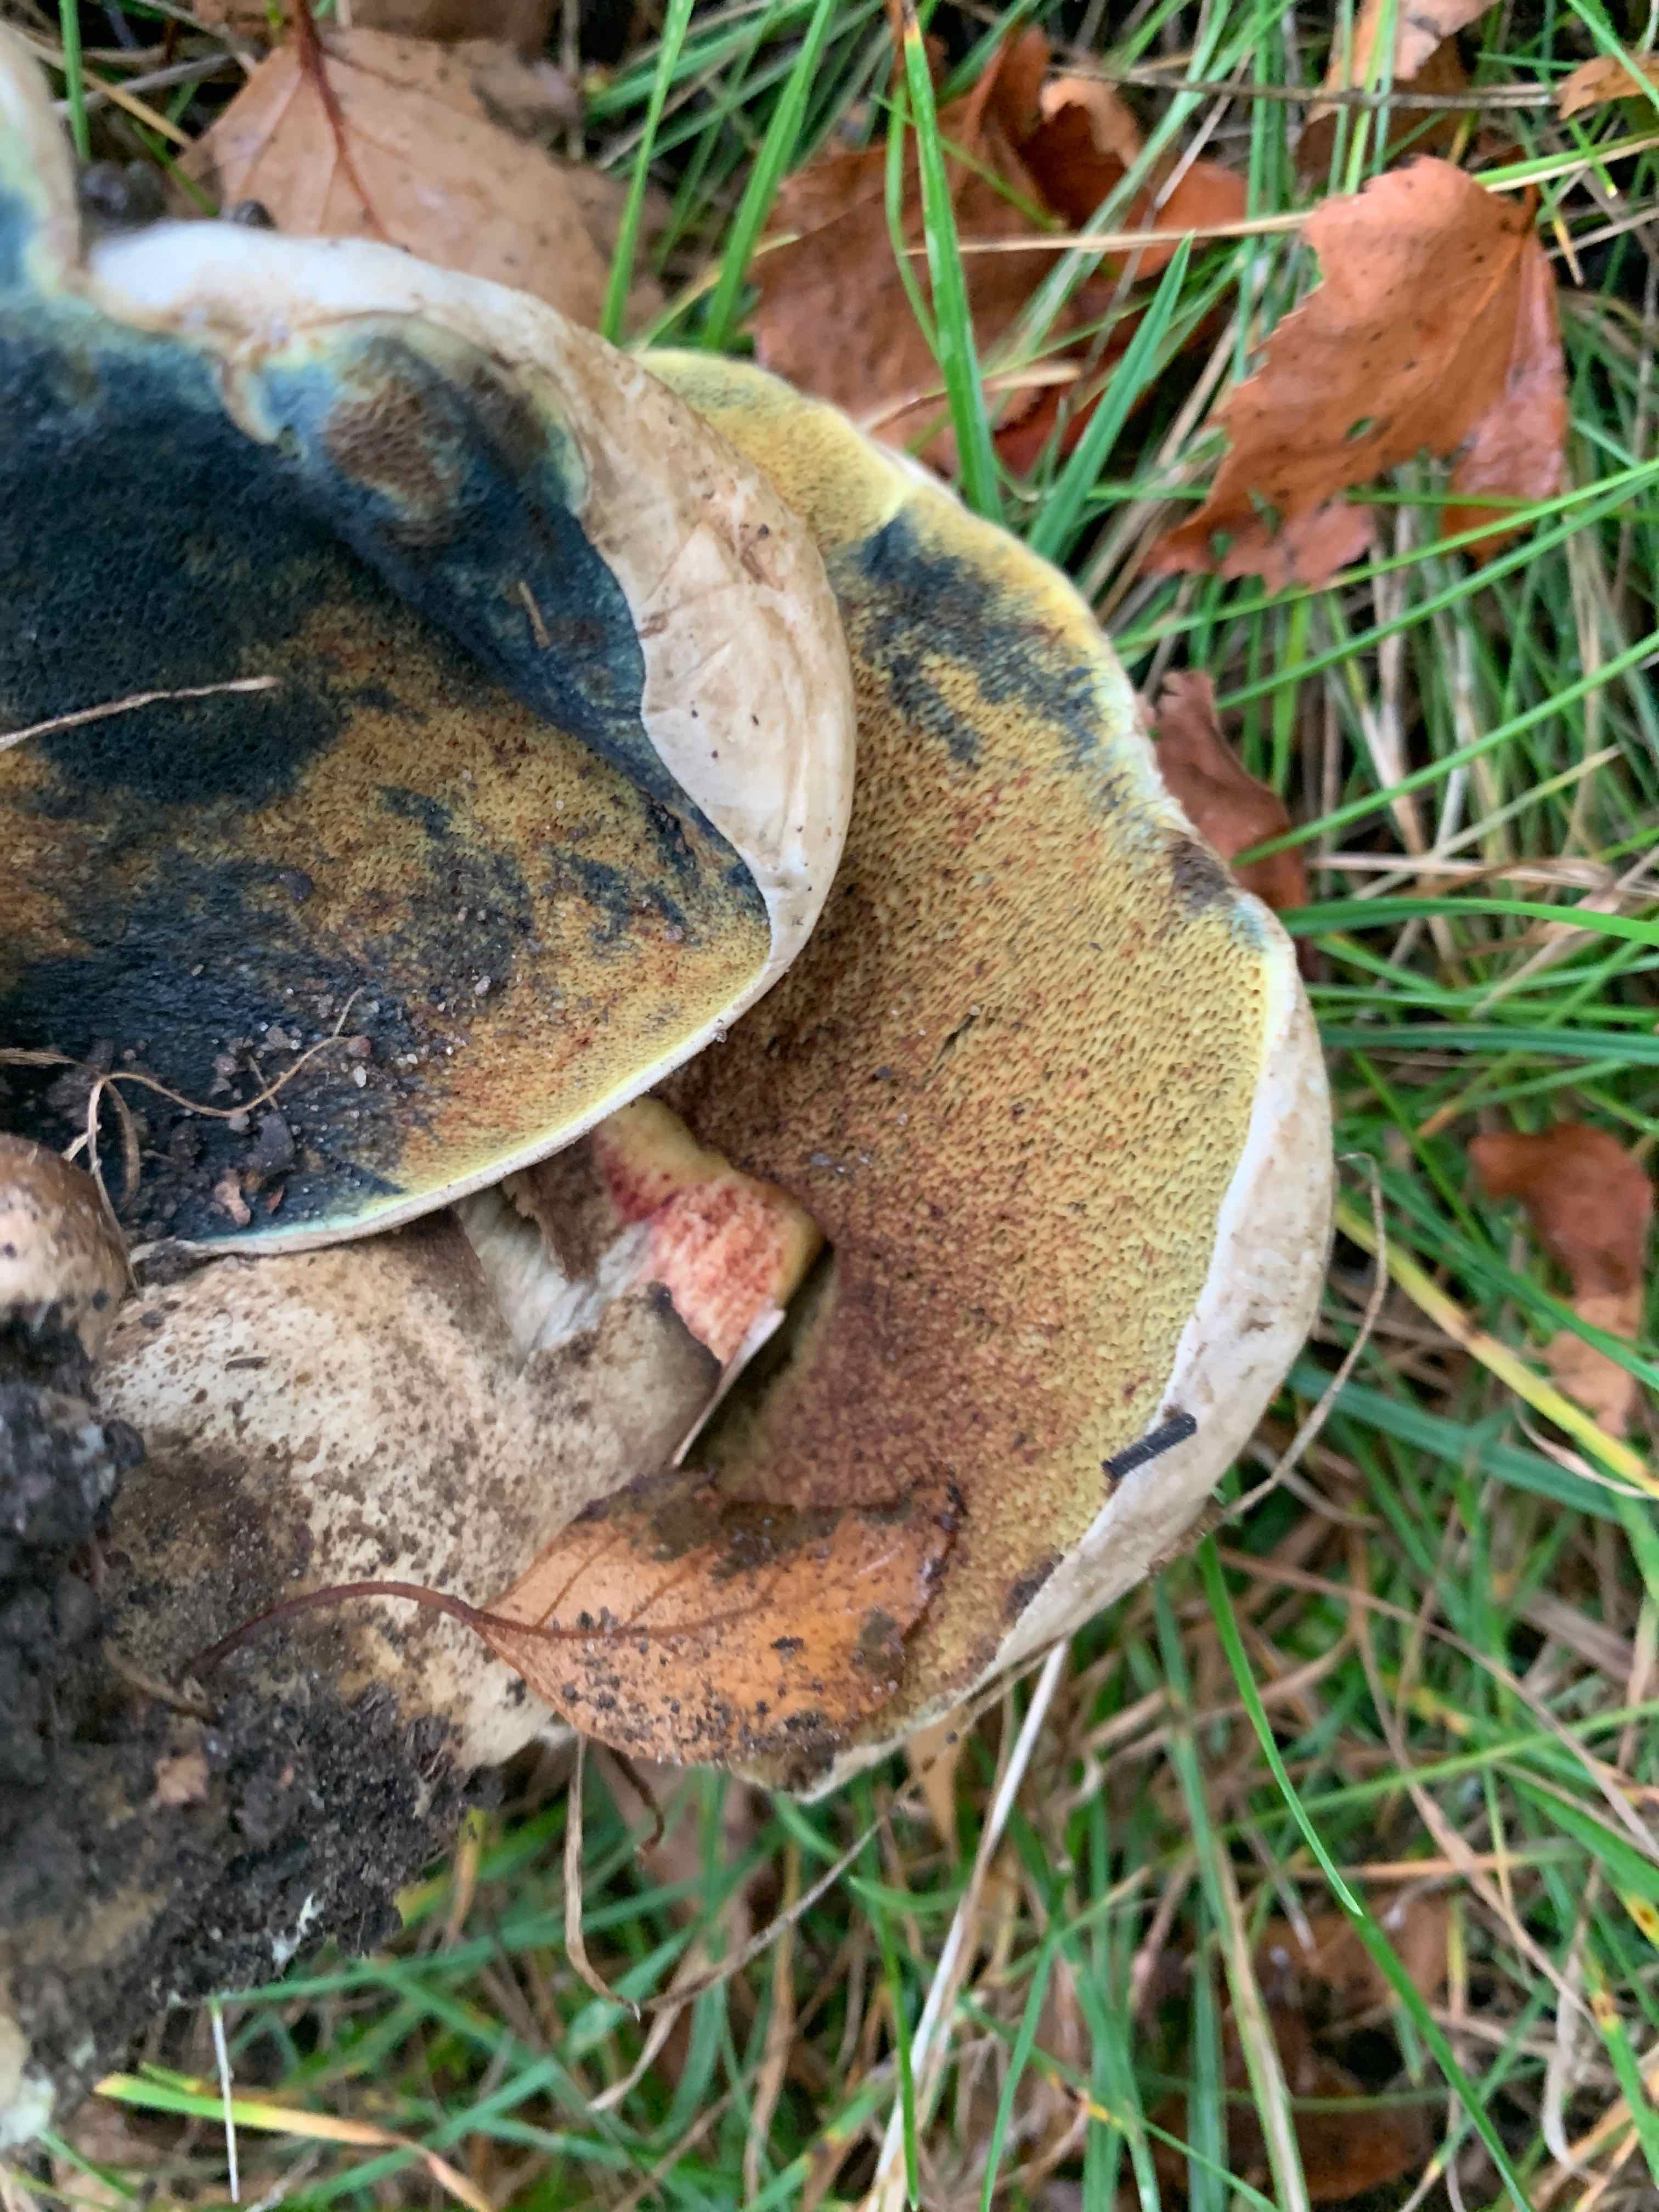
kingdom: Fungi
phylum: Basidiomycota
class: Agaricomycetes
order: Boletales
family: Boletaceae
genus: Caloboletus
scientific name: Caloboletus radicans
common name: rod-rørhat
